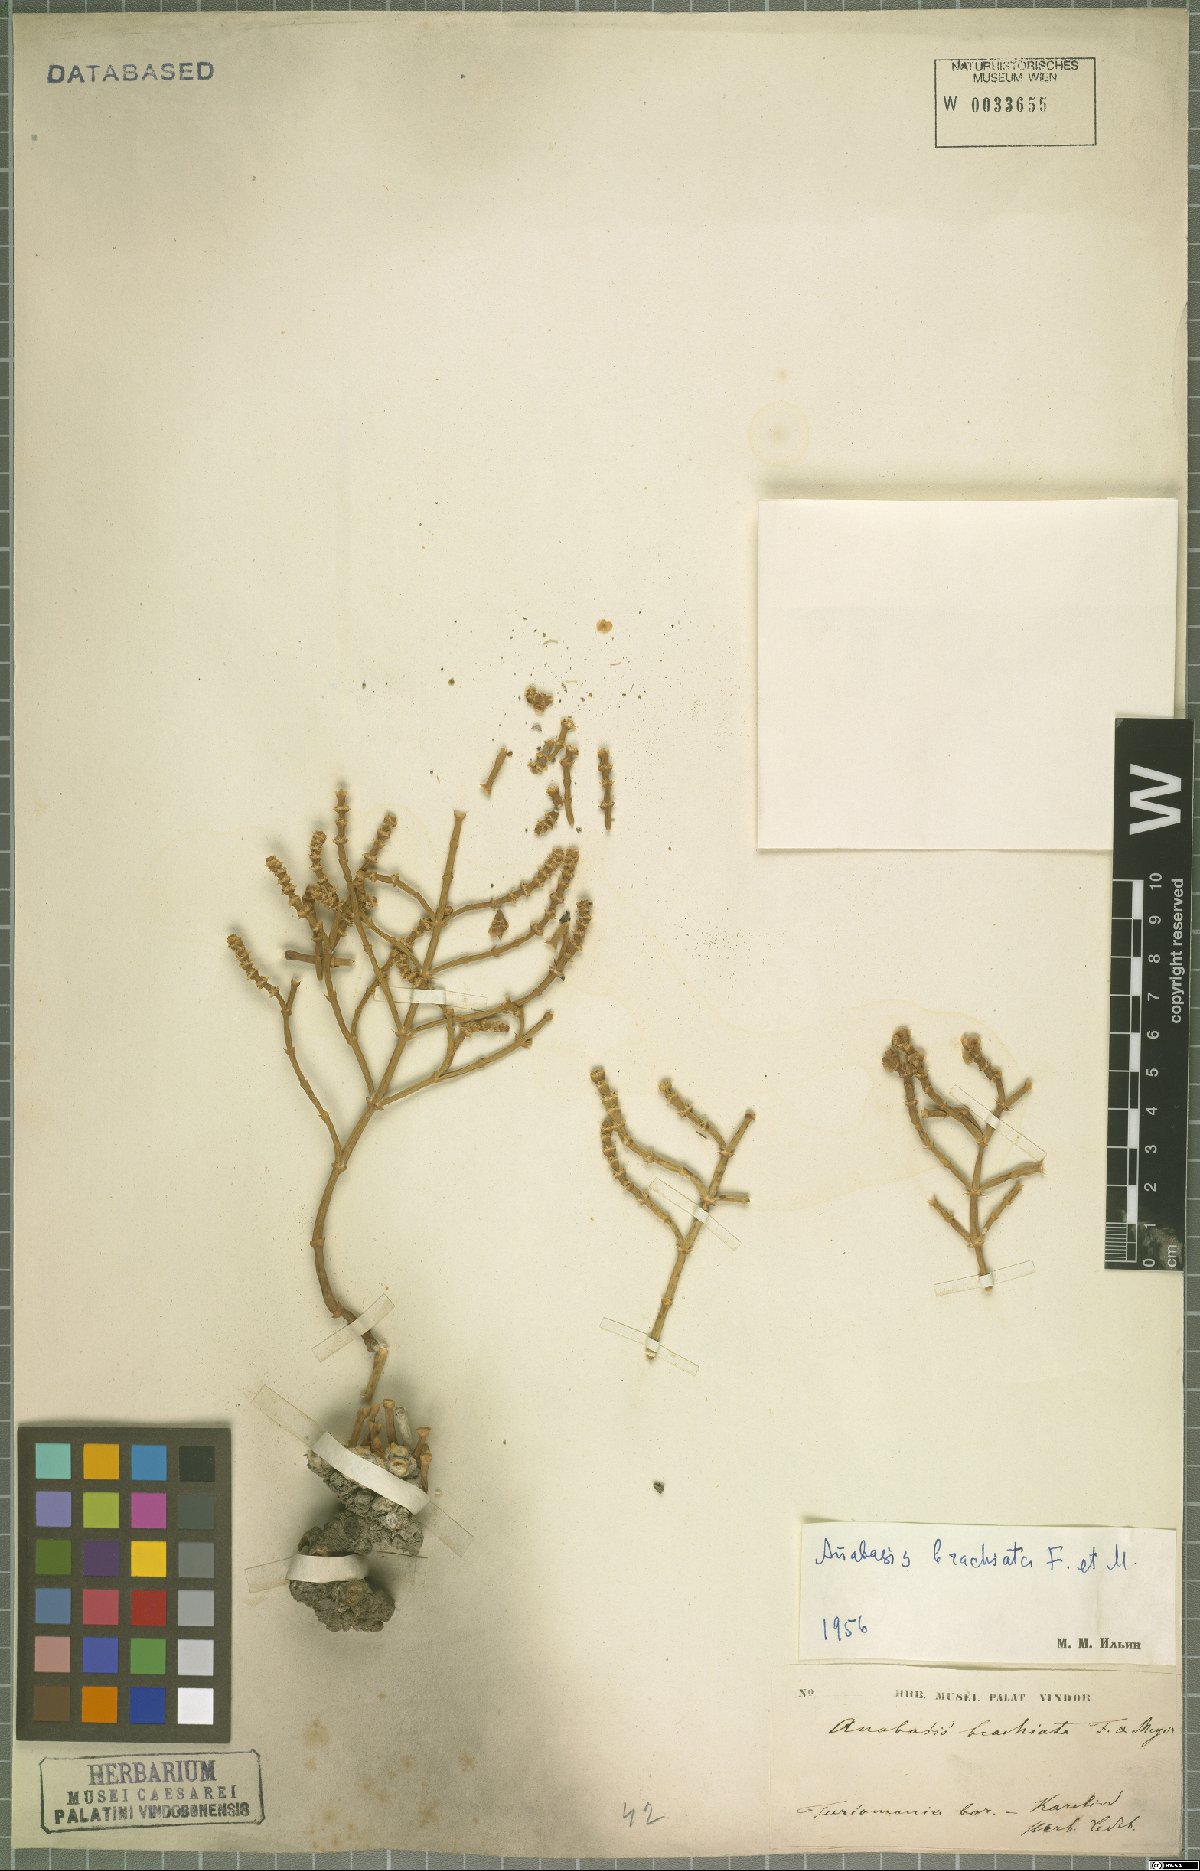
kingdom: Plantae
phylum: Tracheophyta
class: Magnoliopsida
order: Caryophyllales
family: Amaranthaceae
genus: Anabasis
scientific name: Anabasis brachiata
